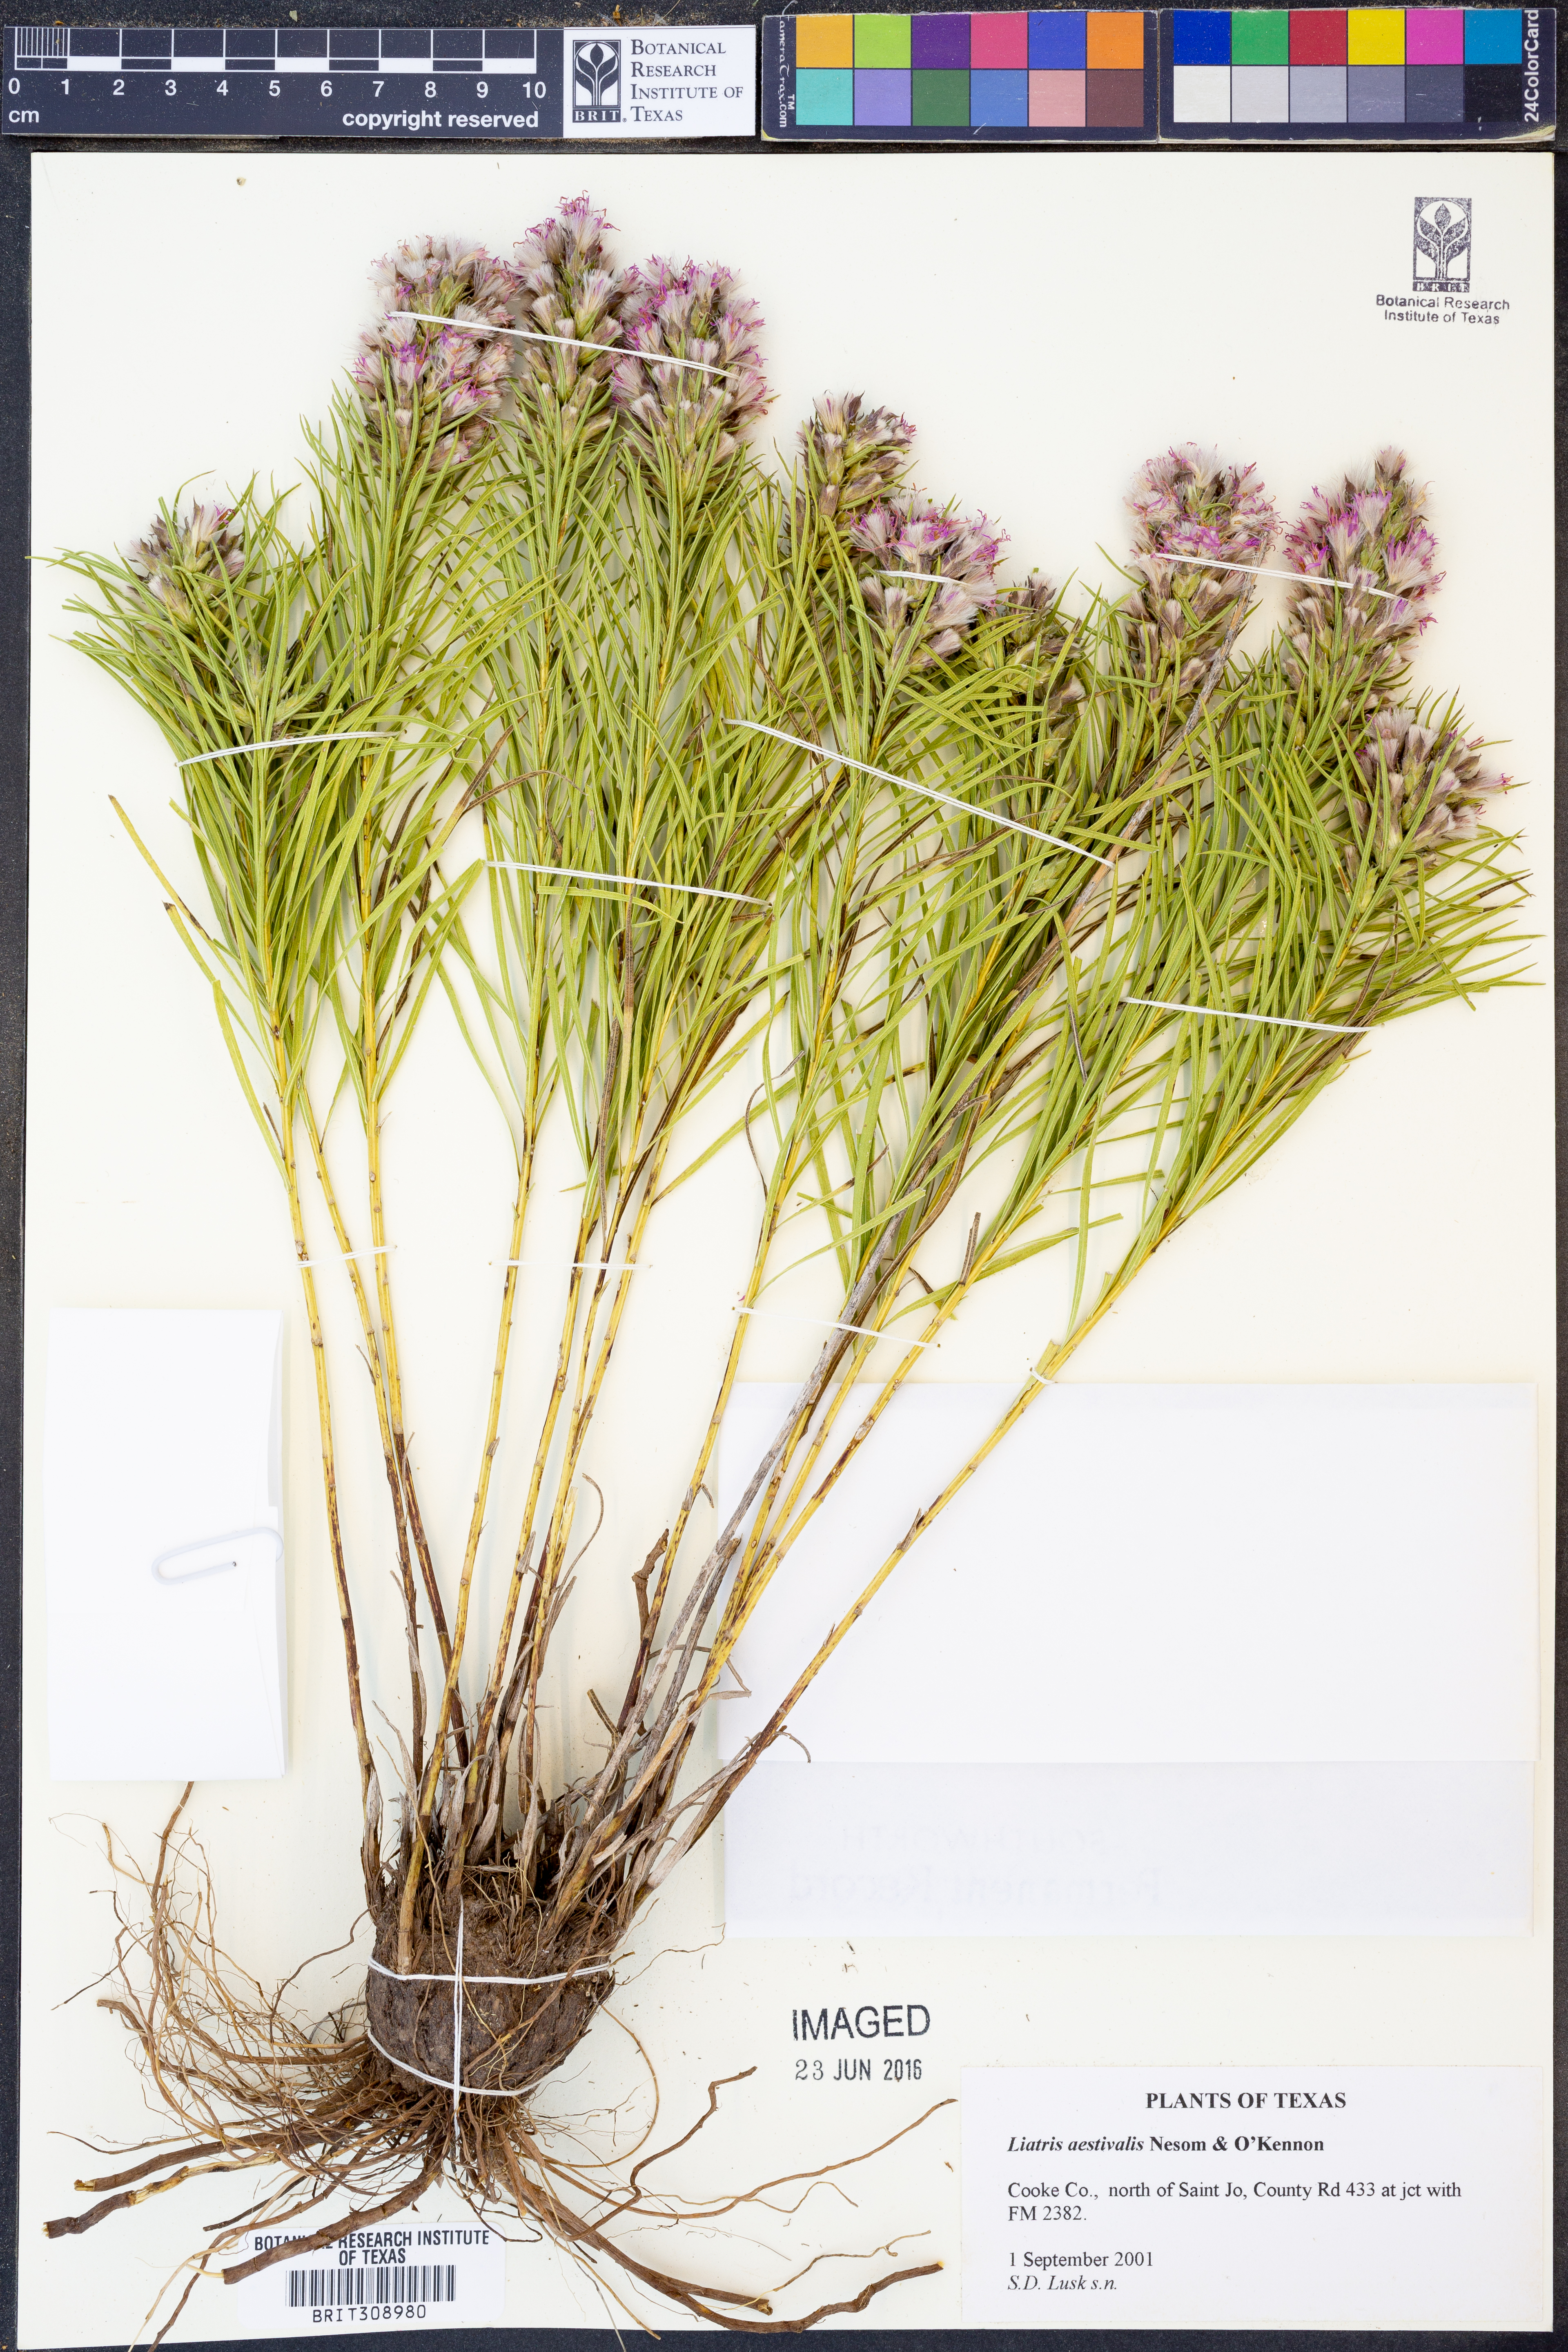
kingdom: Plantae
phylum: Tracheophyta
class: Magnoliopsida
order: Asterales
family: Asteraceae
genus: Liatris
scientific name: Liatris aestivalis
